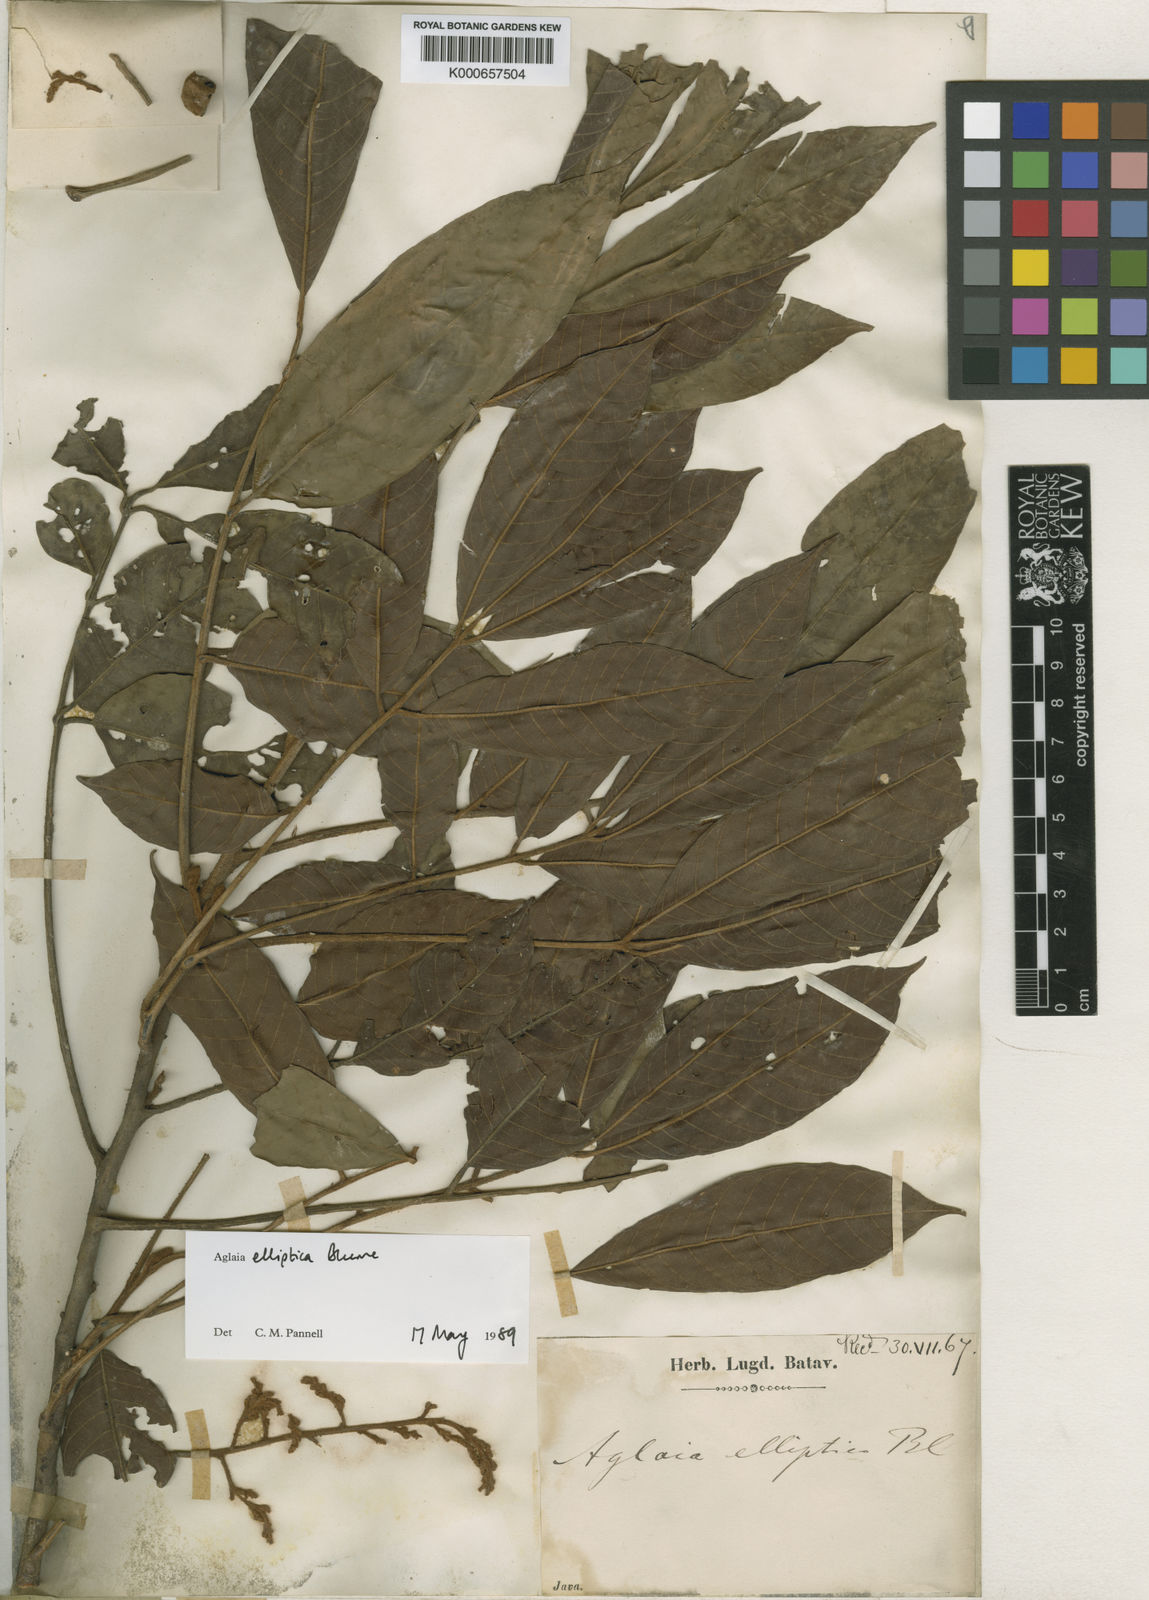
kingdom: Plantae
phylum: Tracheophyta
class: Magnoliopsida
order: Sapindales
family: Meliaceae
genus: Aglaia
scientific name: Aglaia elliptica
